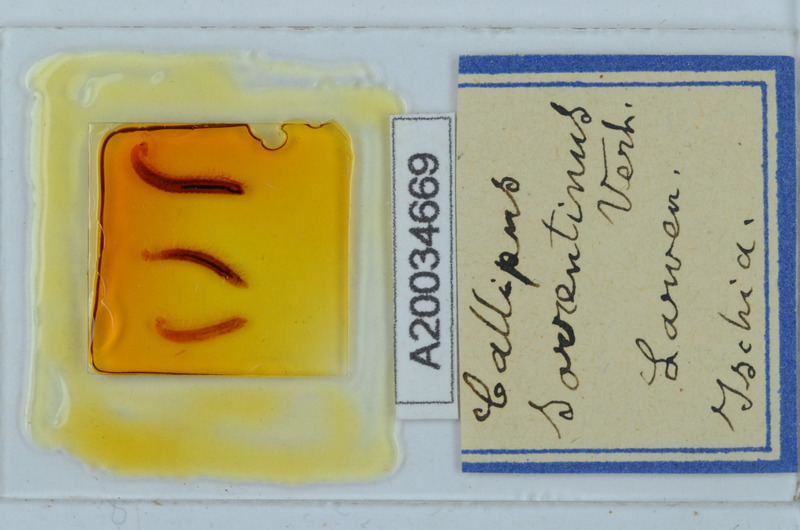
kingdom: Animalia
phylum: Arthropoda
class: Diplopoda
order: Callipodida
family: Callipodidae
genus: Callipus
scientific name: Callipus foetidissimus
